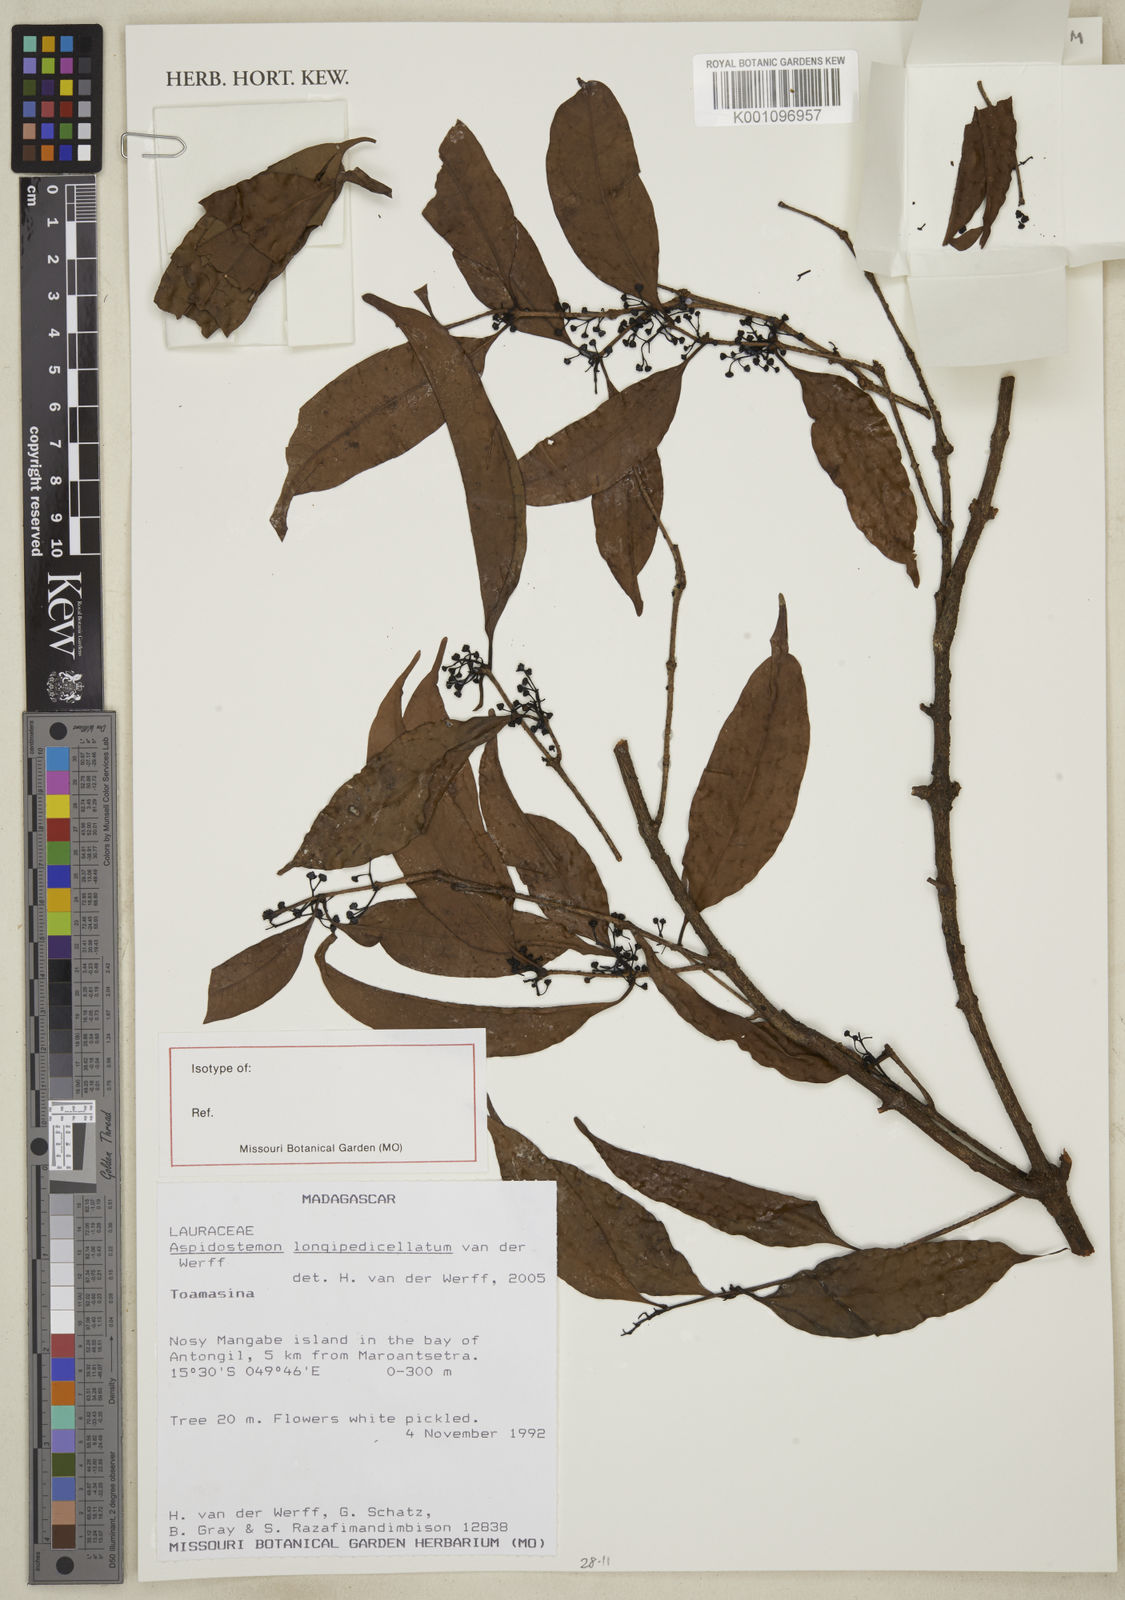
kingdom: Plantae
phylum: Tracheophyta
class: Magnoliopsida
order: Laurales
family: Lauraceae
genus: Aspidostemon
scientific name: Aspidostemon longipedicellatus
